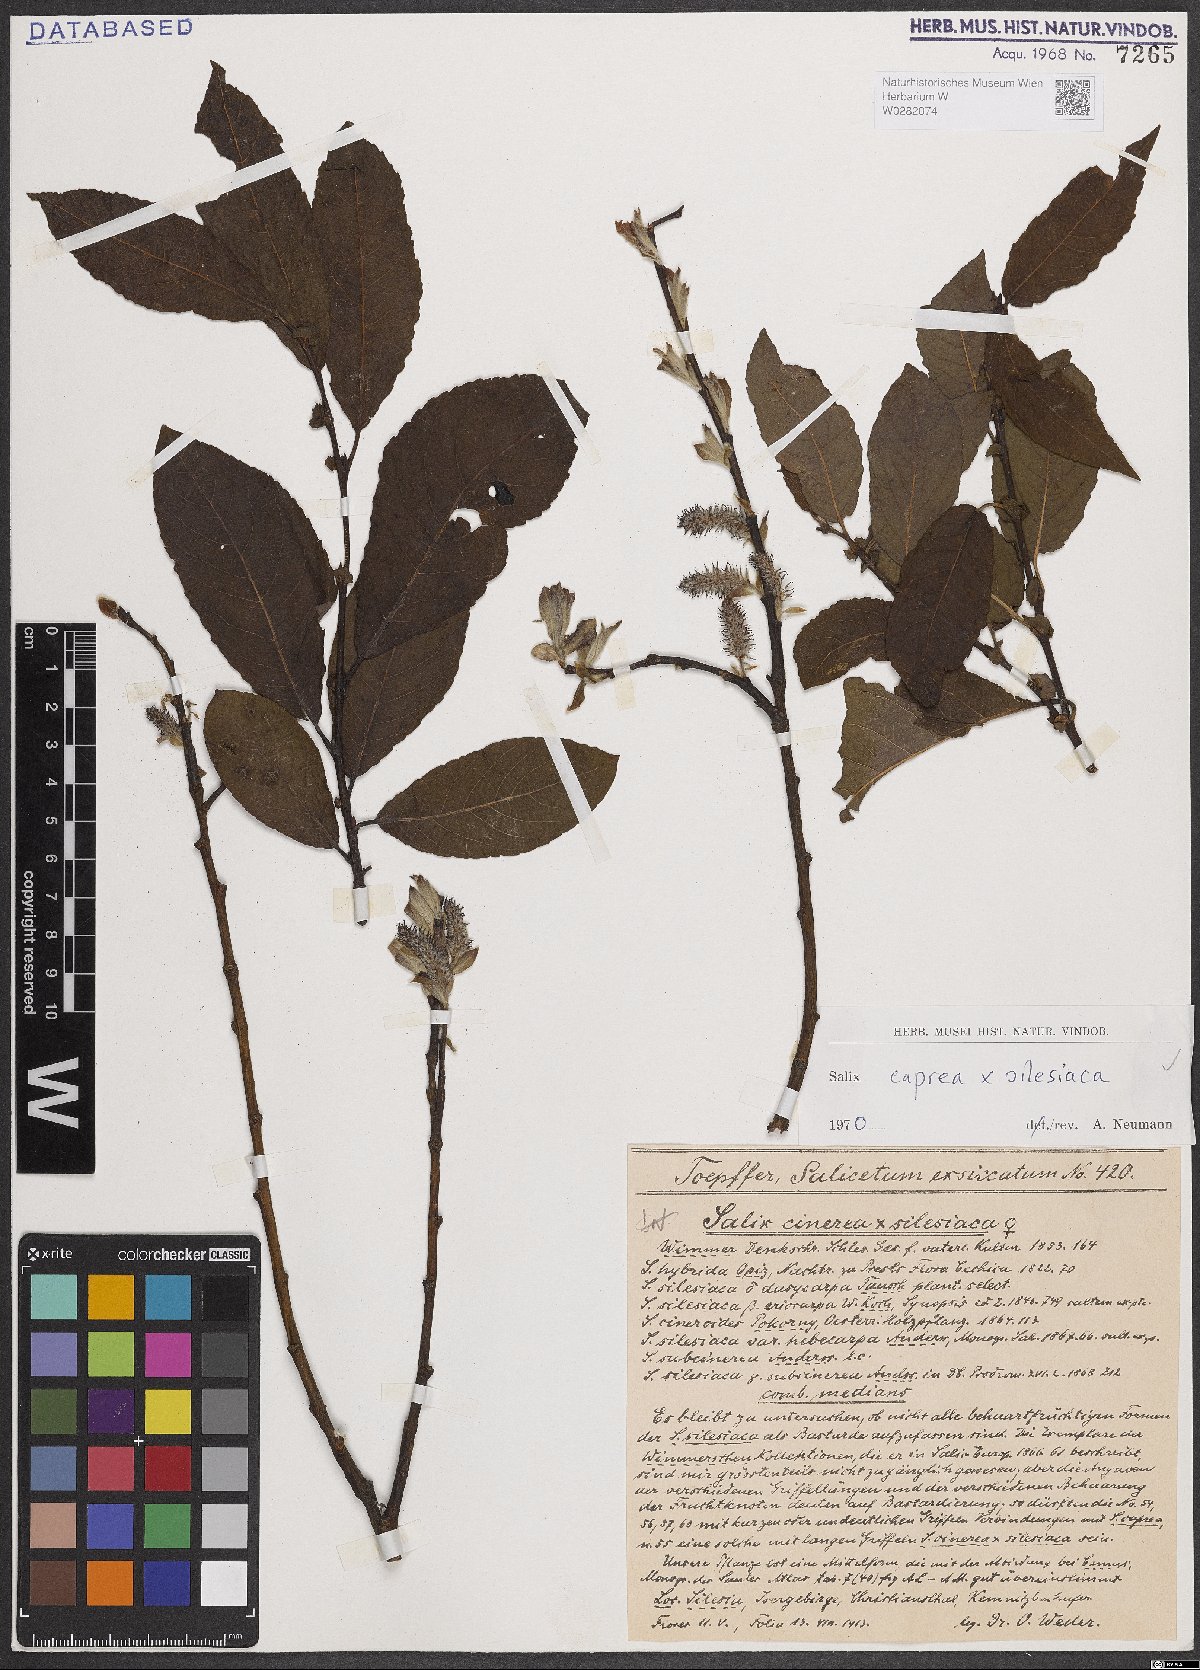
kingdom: Plantae
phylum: Tracheophyta
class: Magnoliopsida
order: Malpighiales
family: Salicaceae
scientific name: Salicaceae
